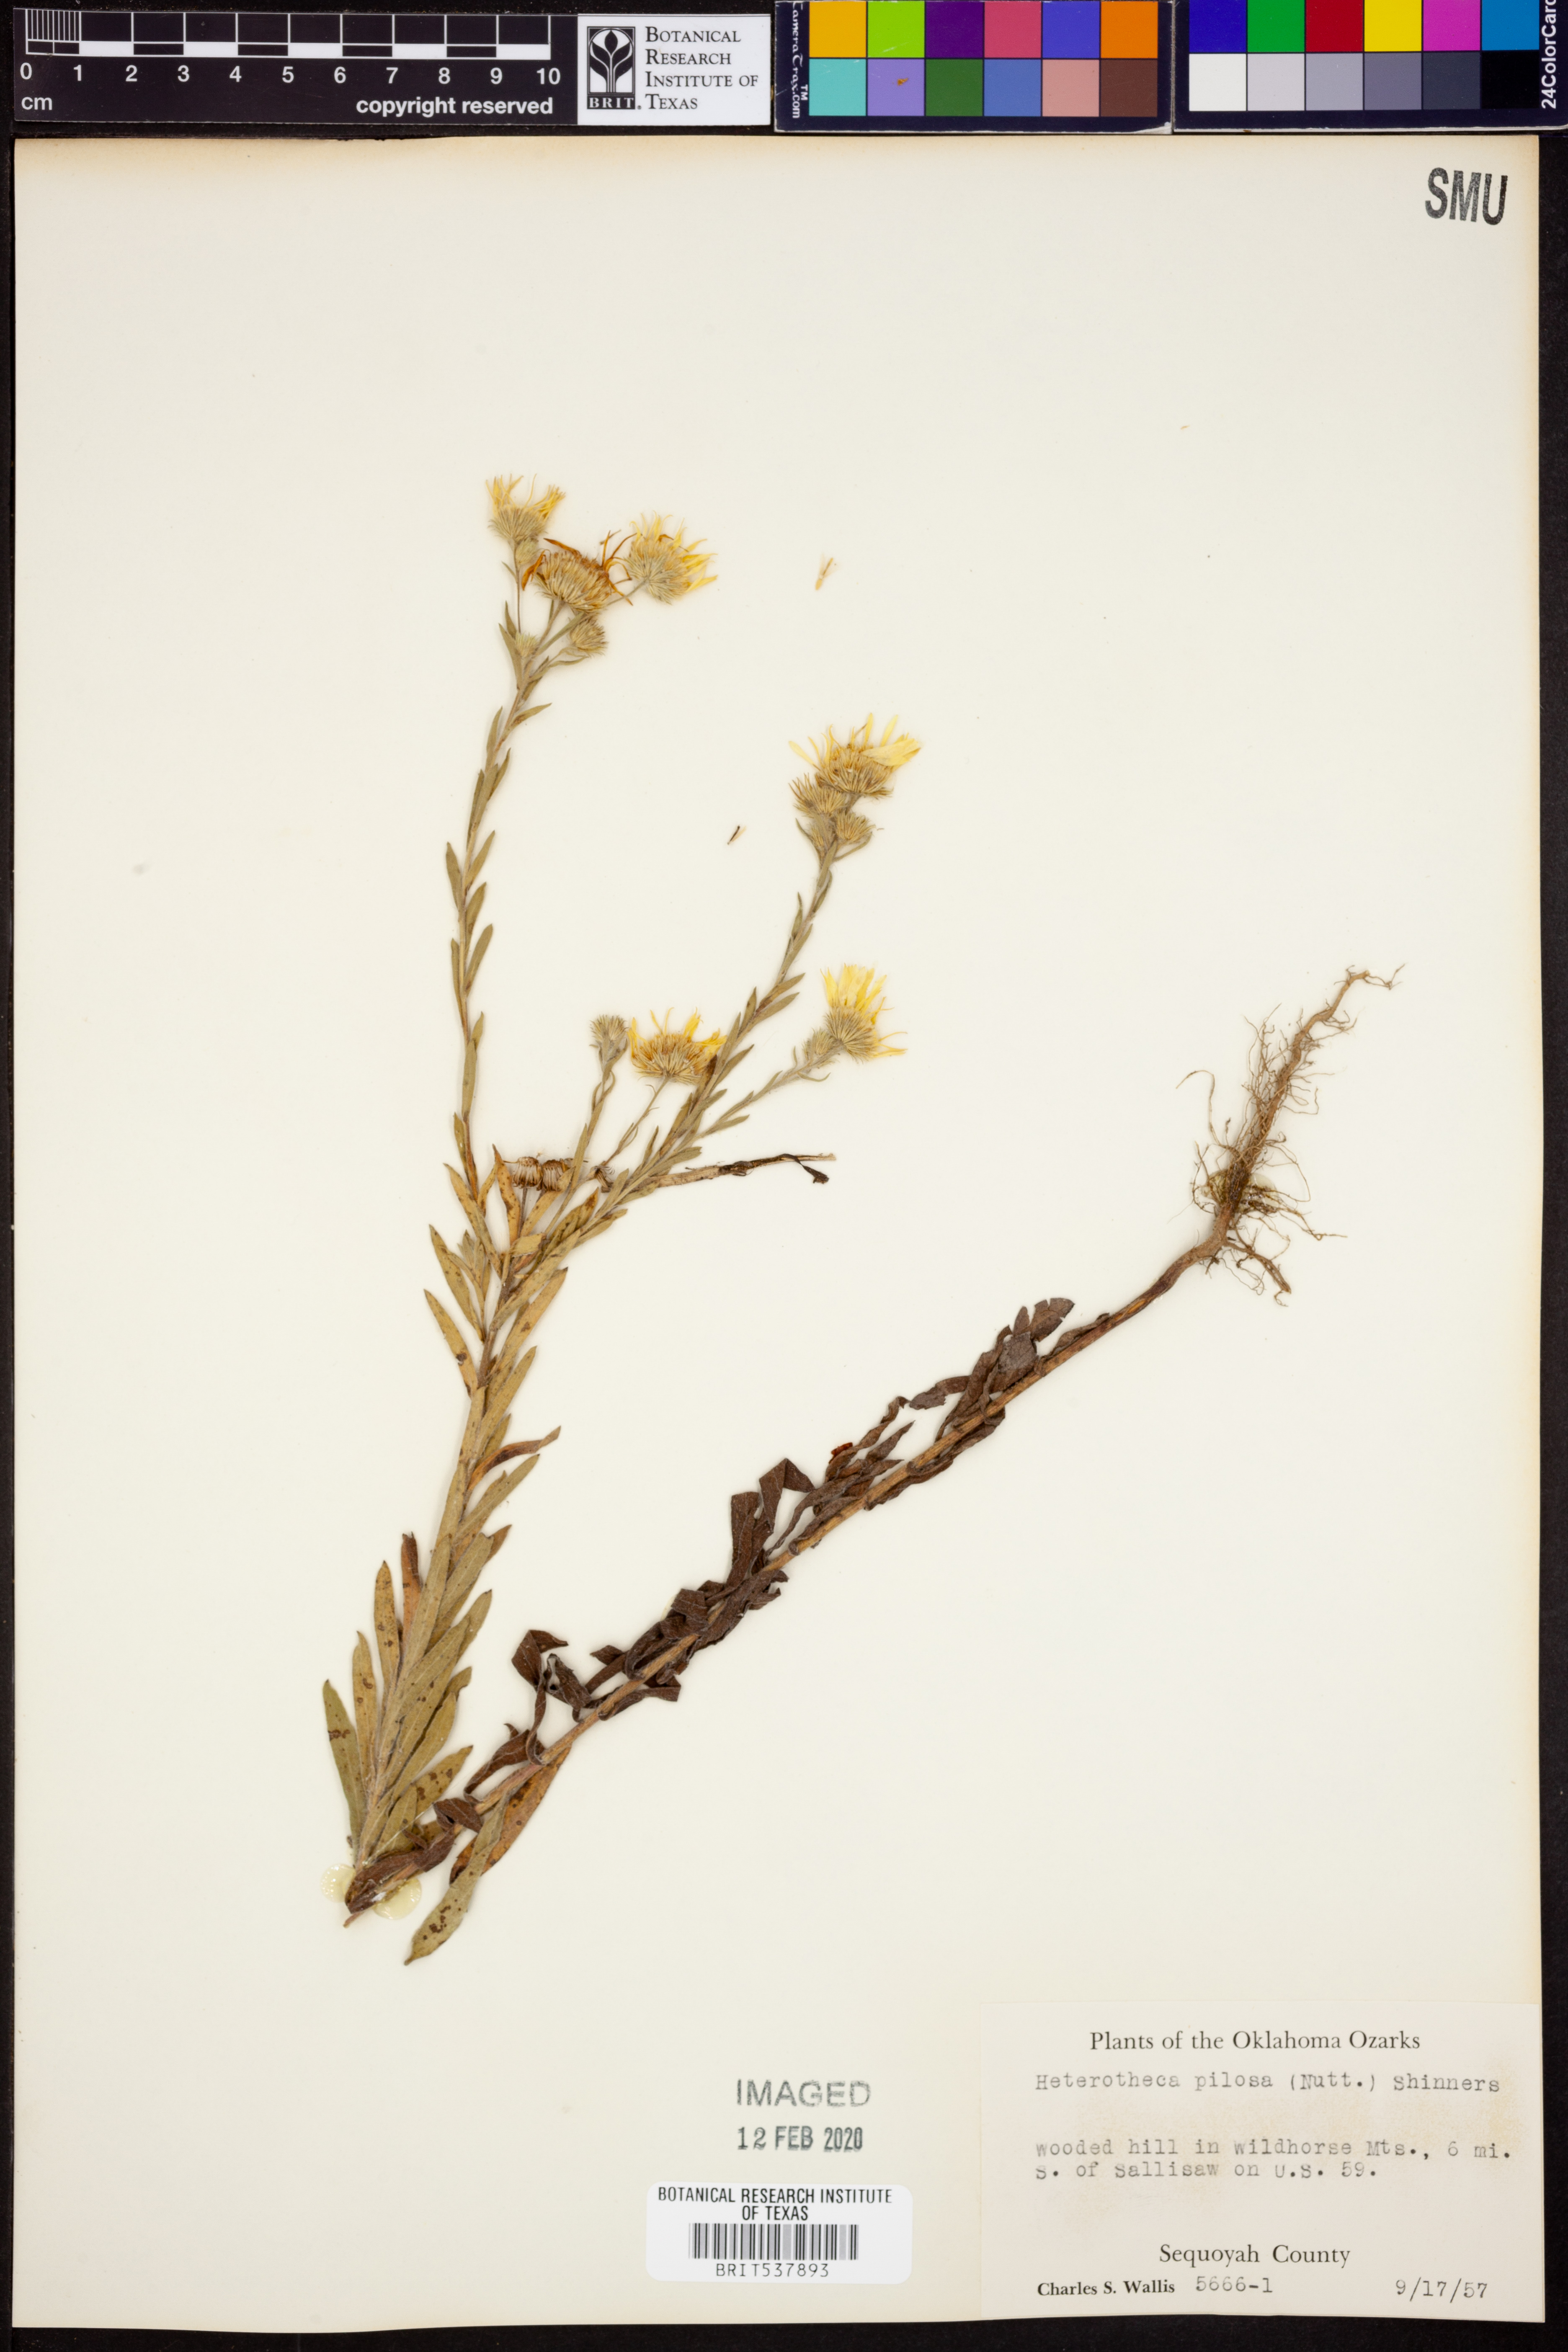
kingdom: Plantae
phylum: Tracheophyta
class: Magnoliopsida
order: Asterales
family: Asteraceae
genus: Bradburia
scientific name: Bradburia pilosa
